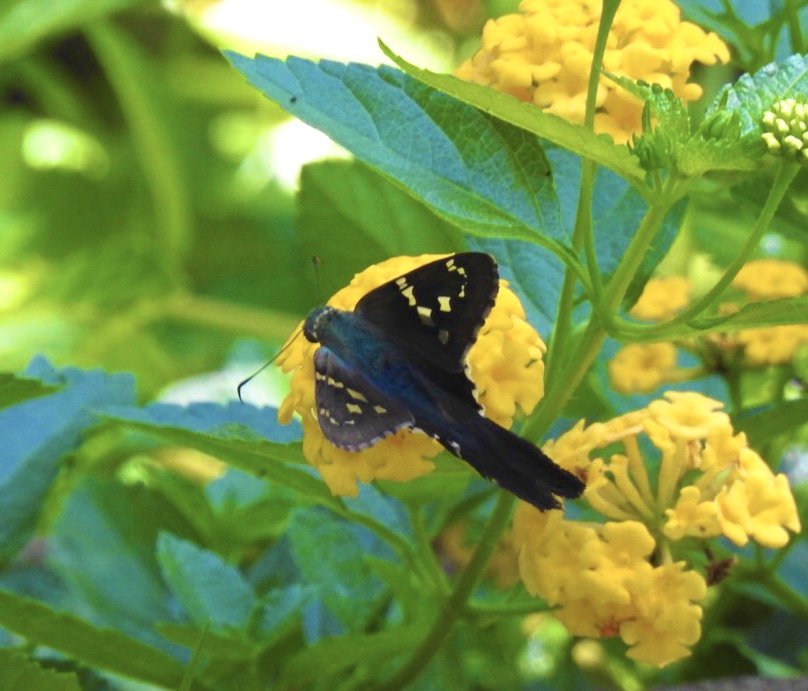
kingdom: Animalia
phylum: Arthropoda
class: Insecta
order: Lepidoptera
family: Hesperiidae
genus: Urbanus
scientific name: Urbanus proteus
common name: Long-tailed Skipper
